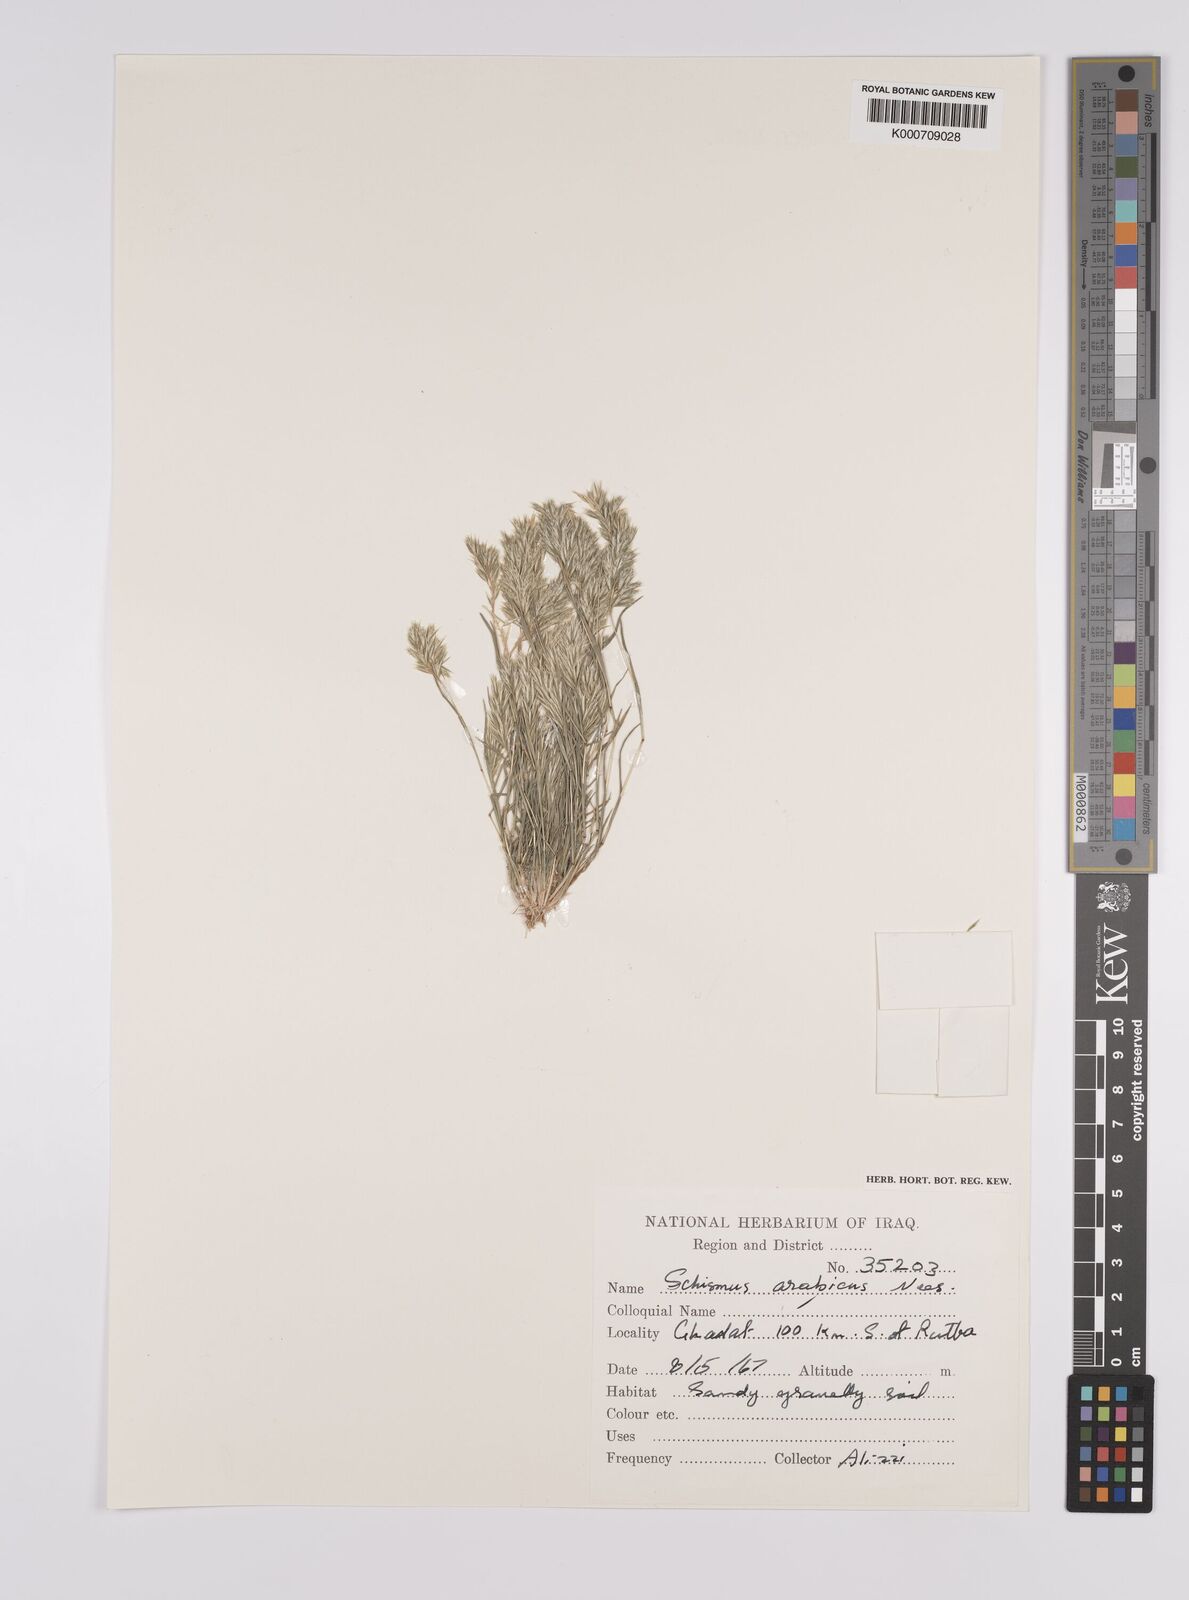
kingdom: Plantae
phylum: Tracheophyta
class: Liliopsida
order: Poales
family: Poaceae
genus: Schismus
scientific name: Schismus arabicus
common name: Arabian schismus
